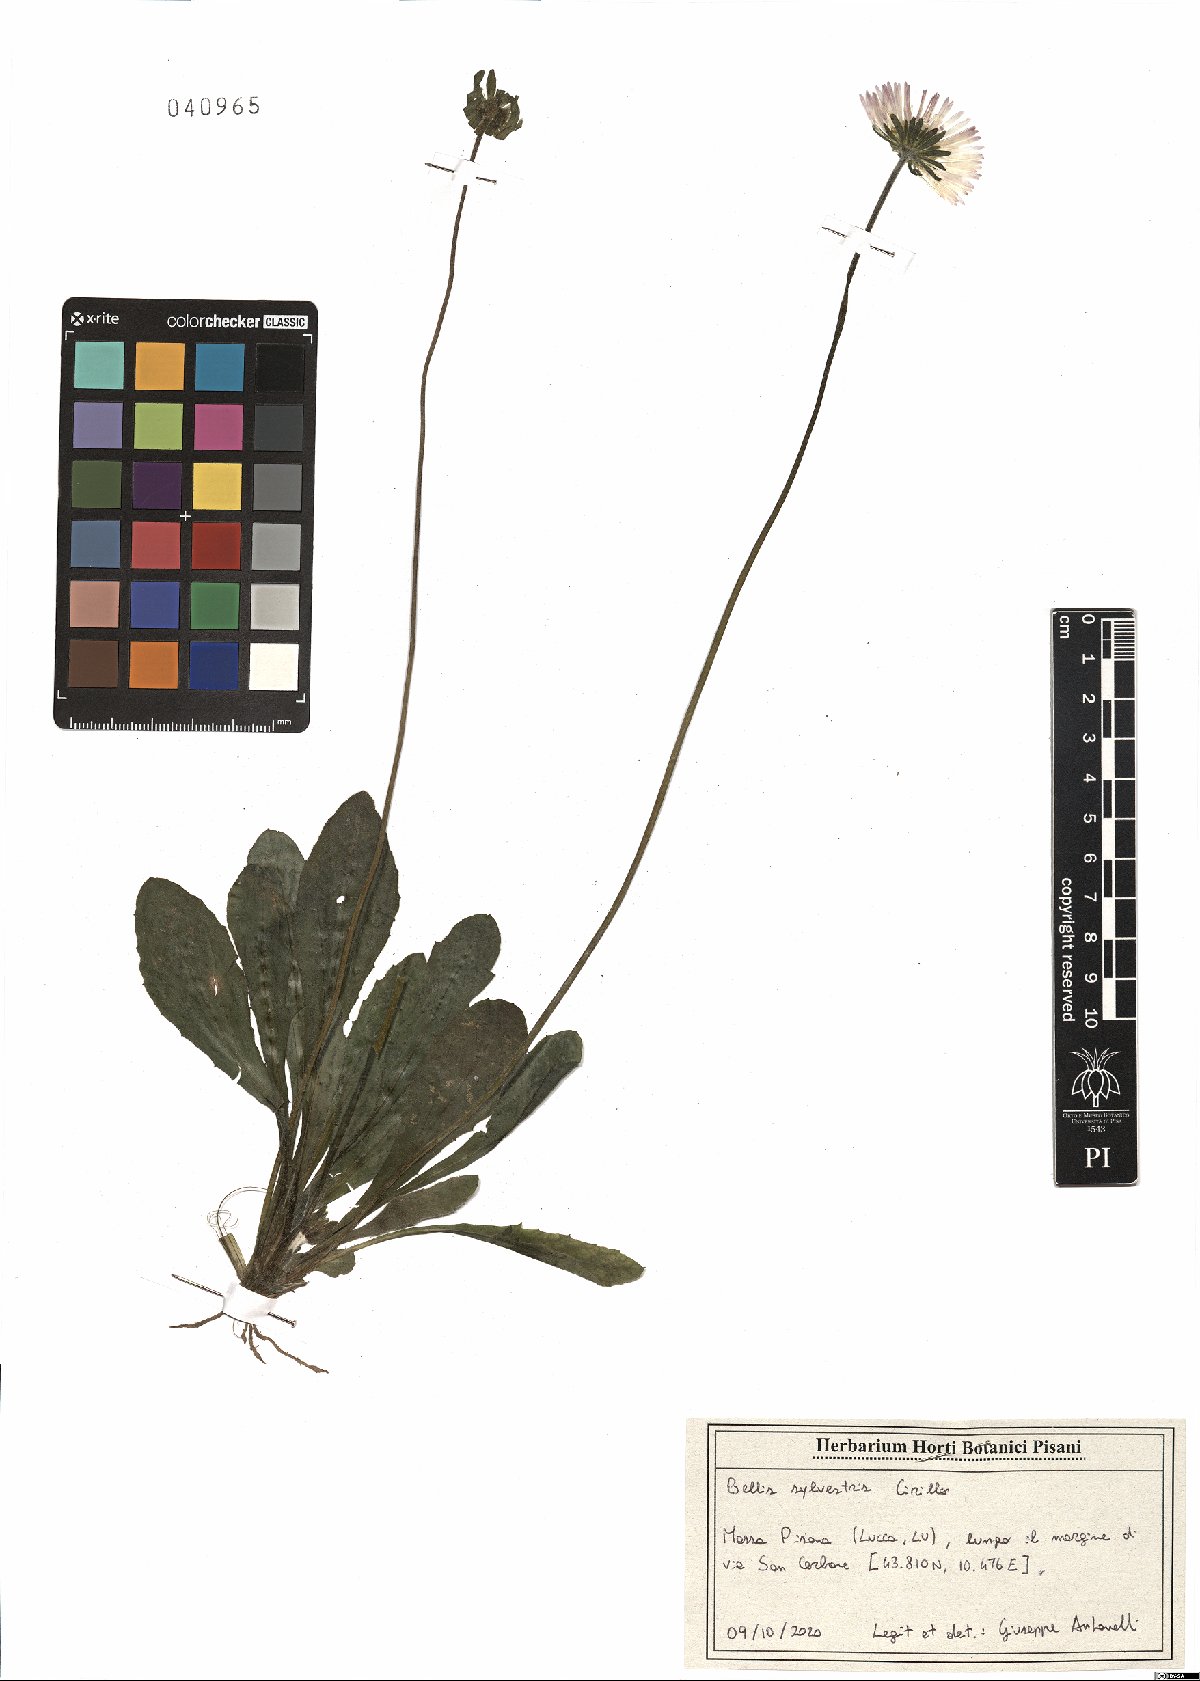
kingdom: Plantae
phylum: Tracheophyta
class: Magnoliopsida
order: Asterales
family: Asteraceae
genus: Bellis
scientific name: Bellis sylvestris
